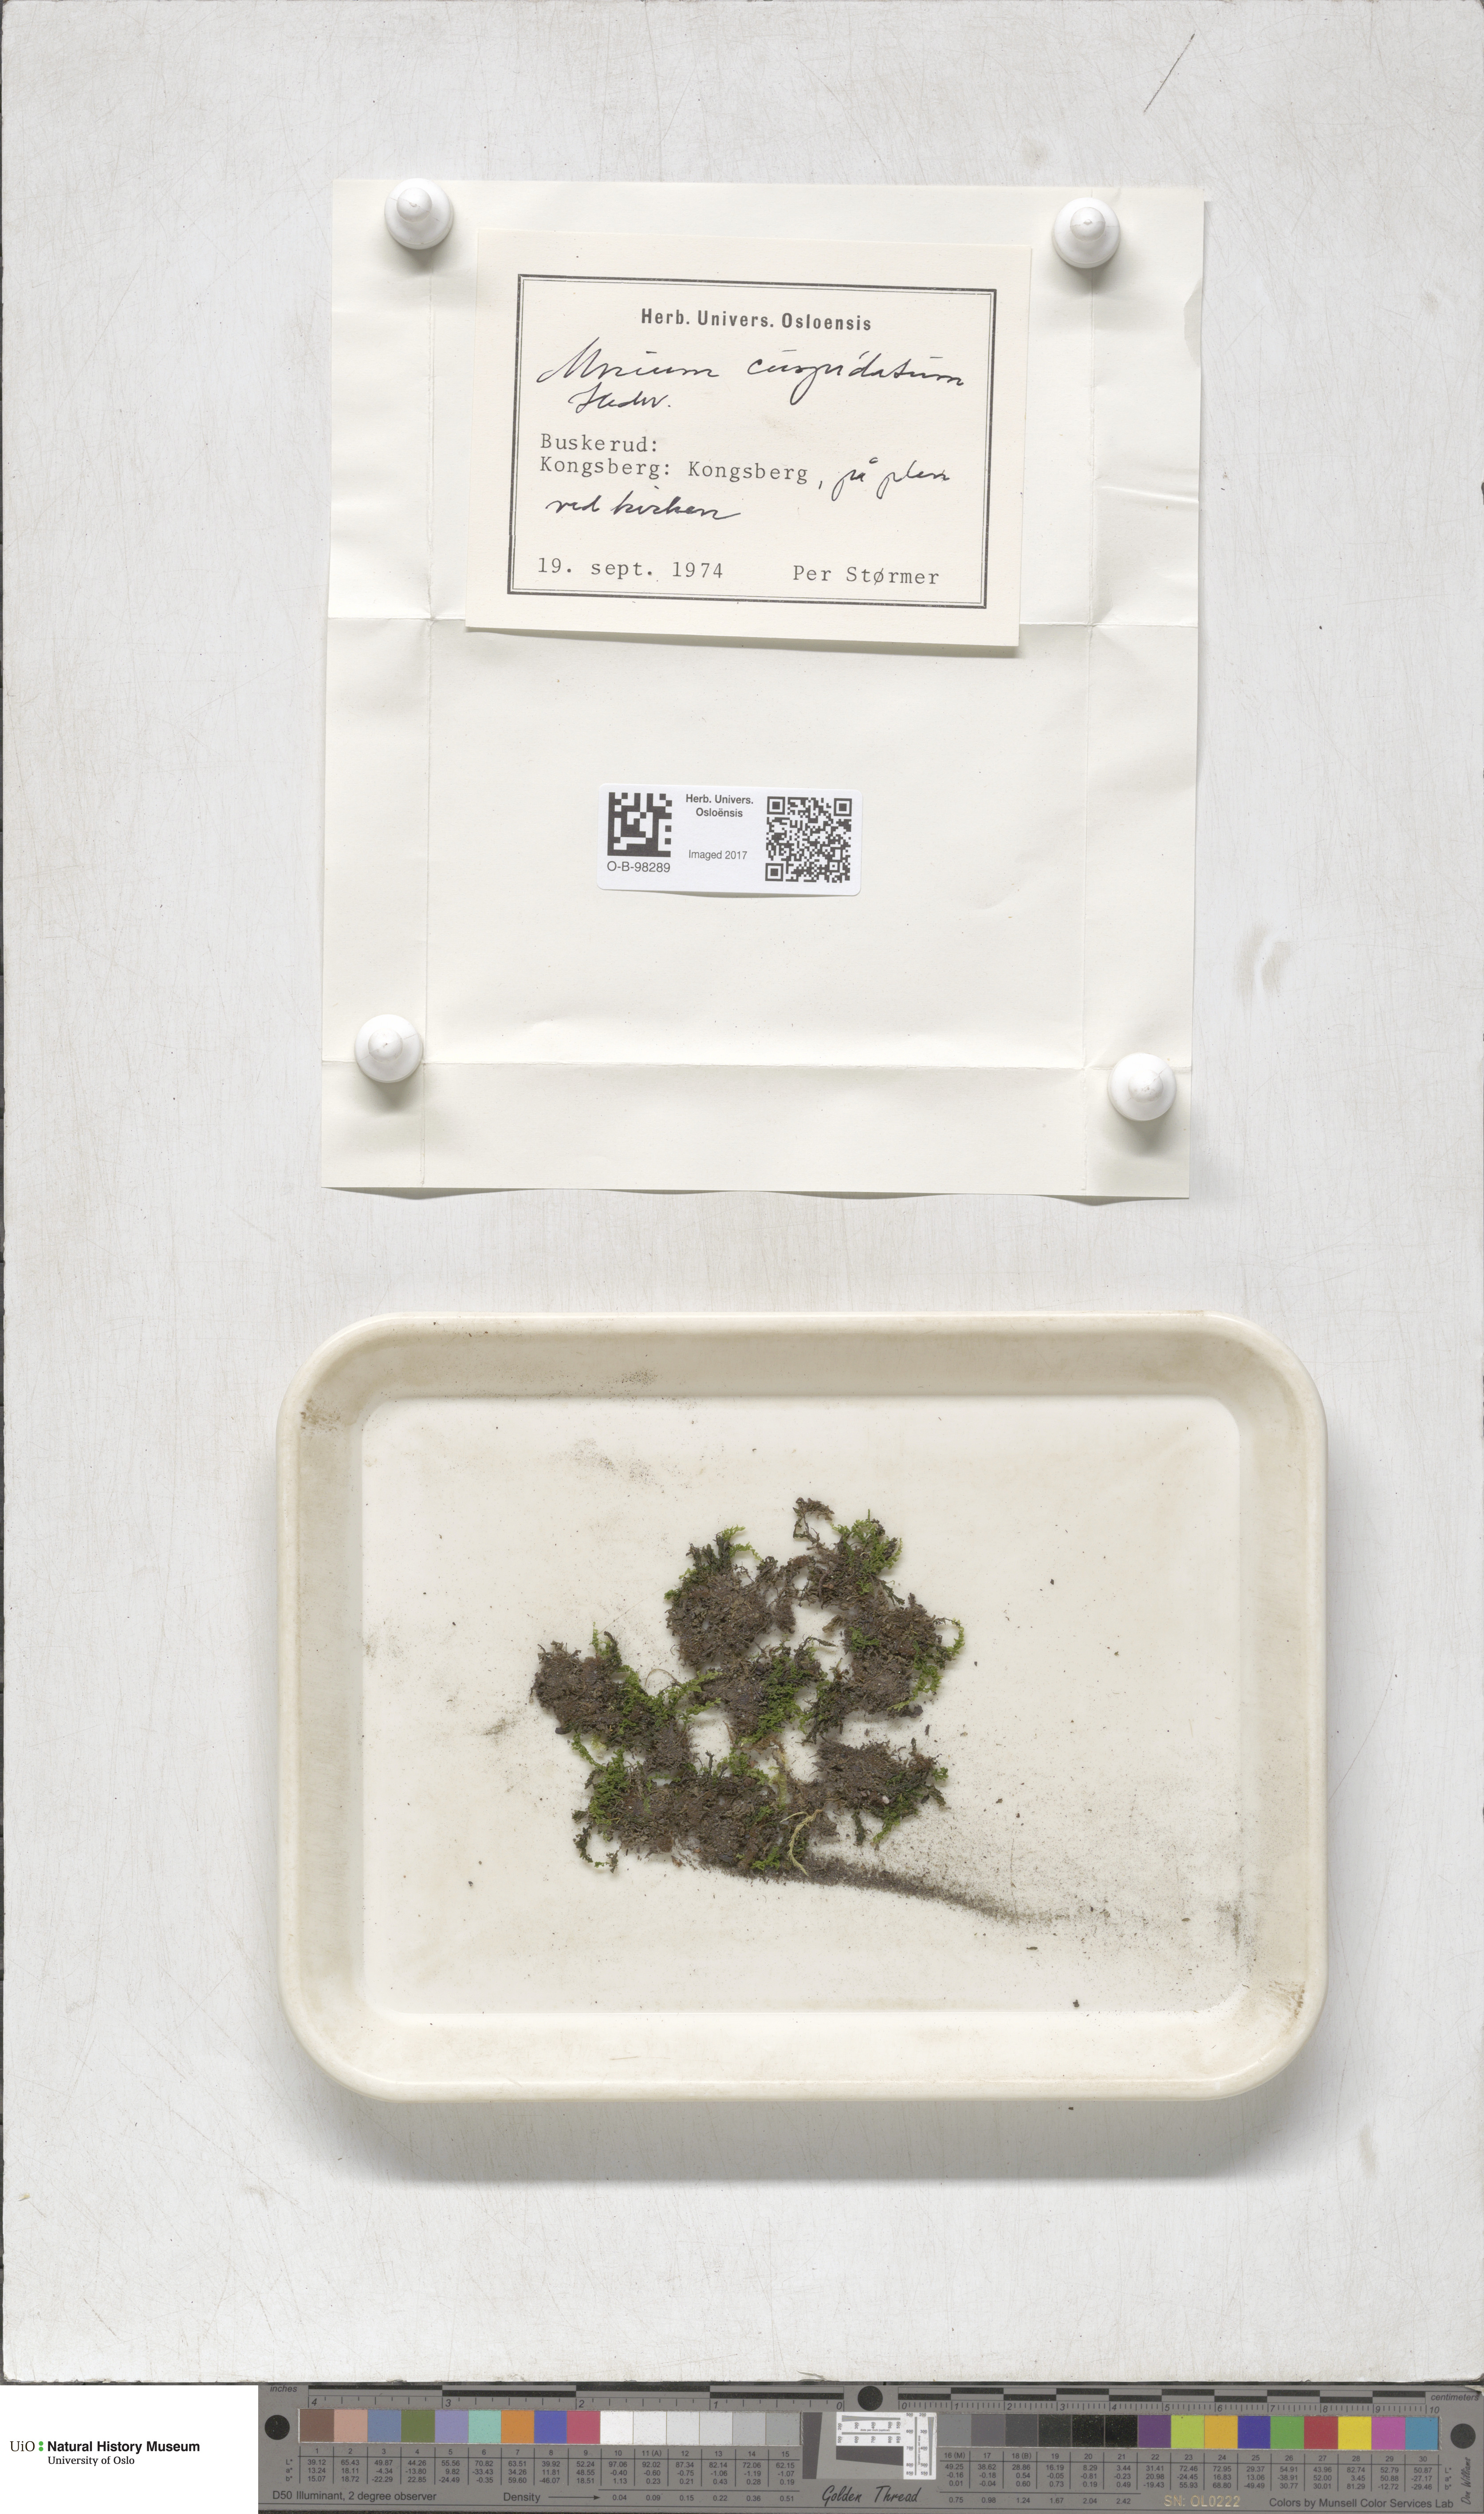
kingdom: Plantae
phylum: Bryophyta
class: Bryopsida
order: Bryales
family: Mniaceae
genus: Plagiomnium
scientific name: Plagiomnium cuspidatum
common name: Woodsy leafy moss
